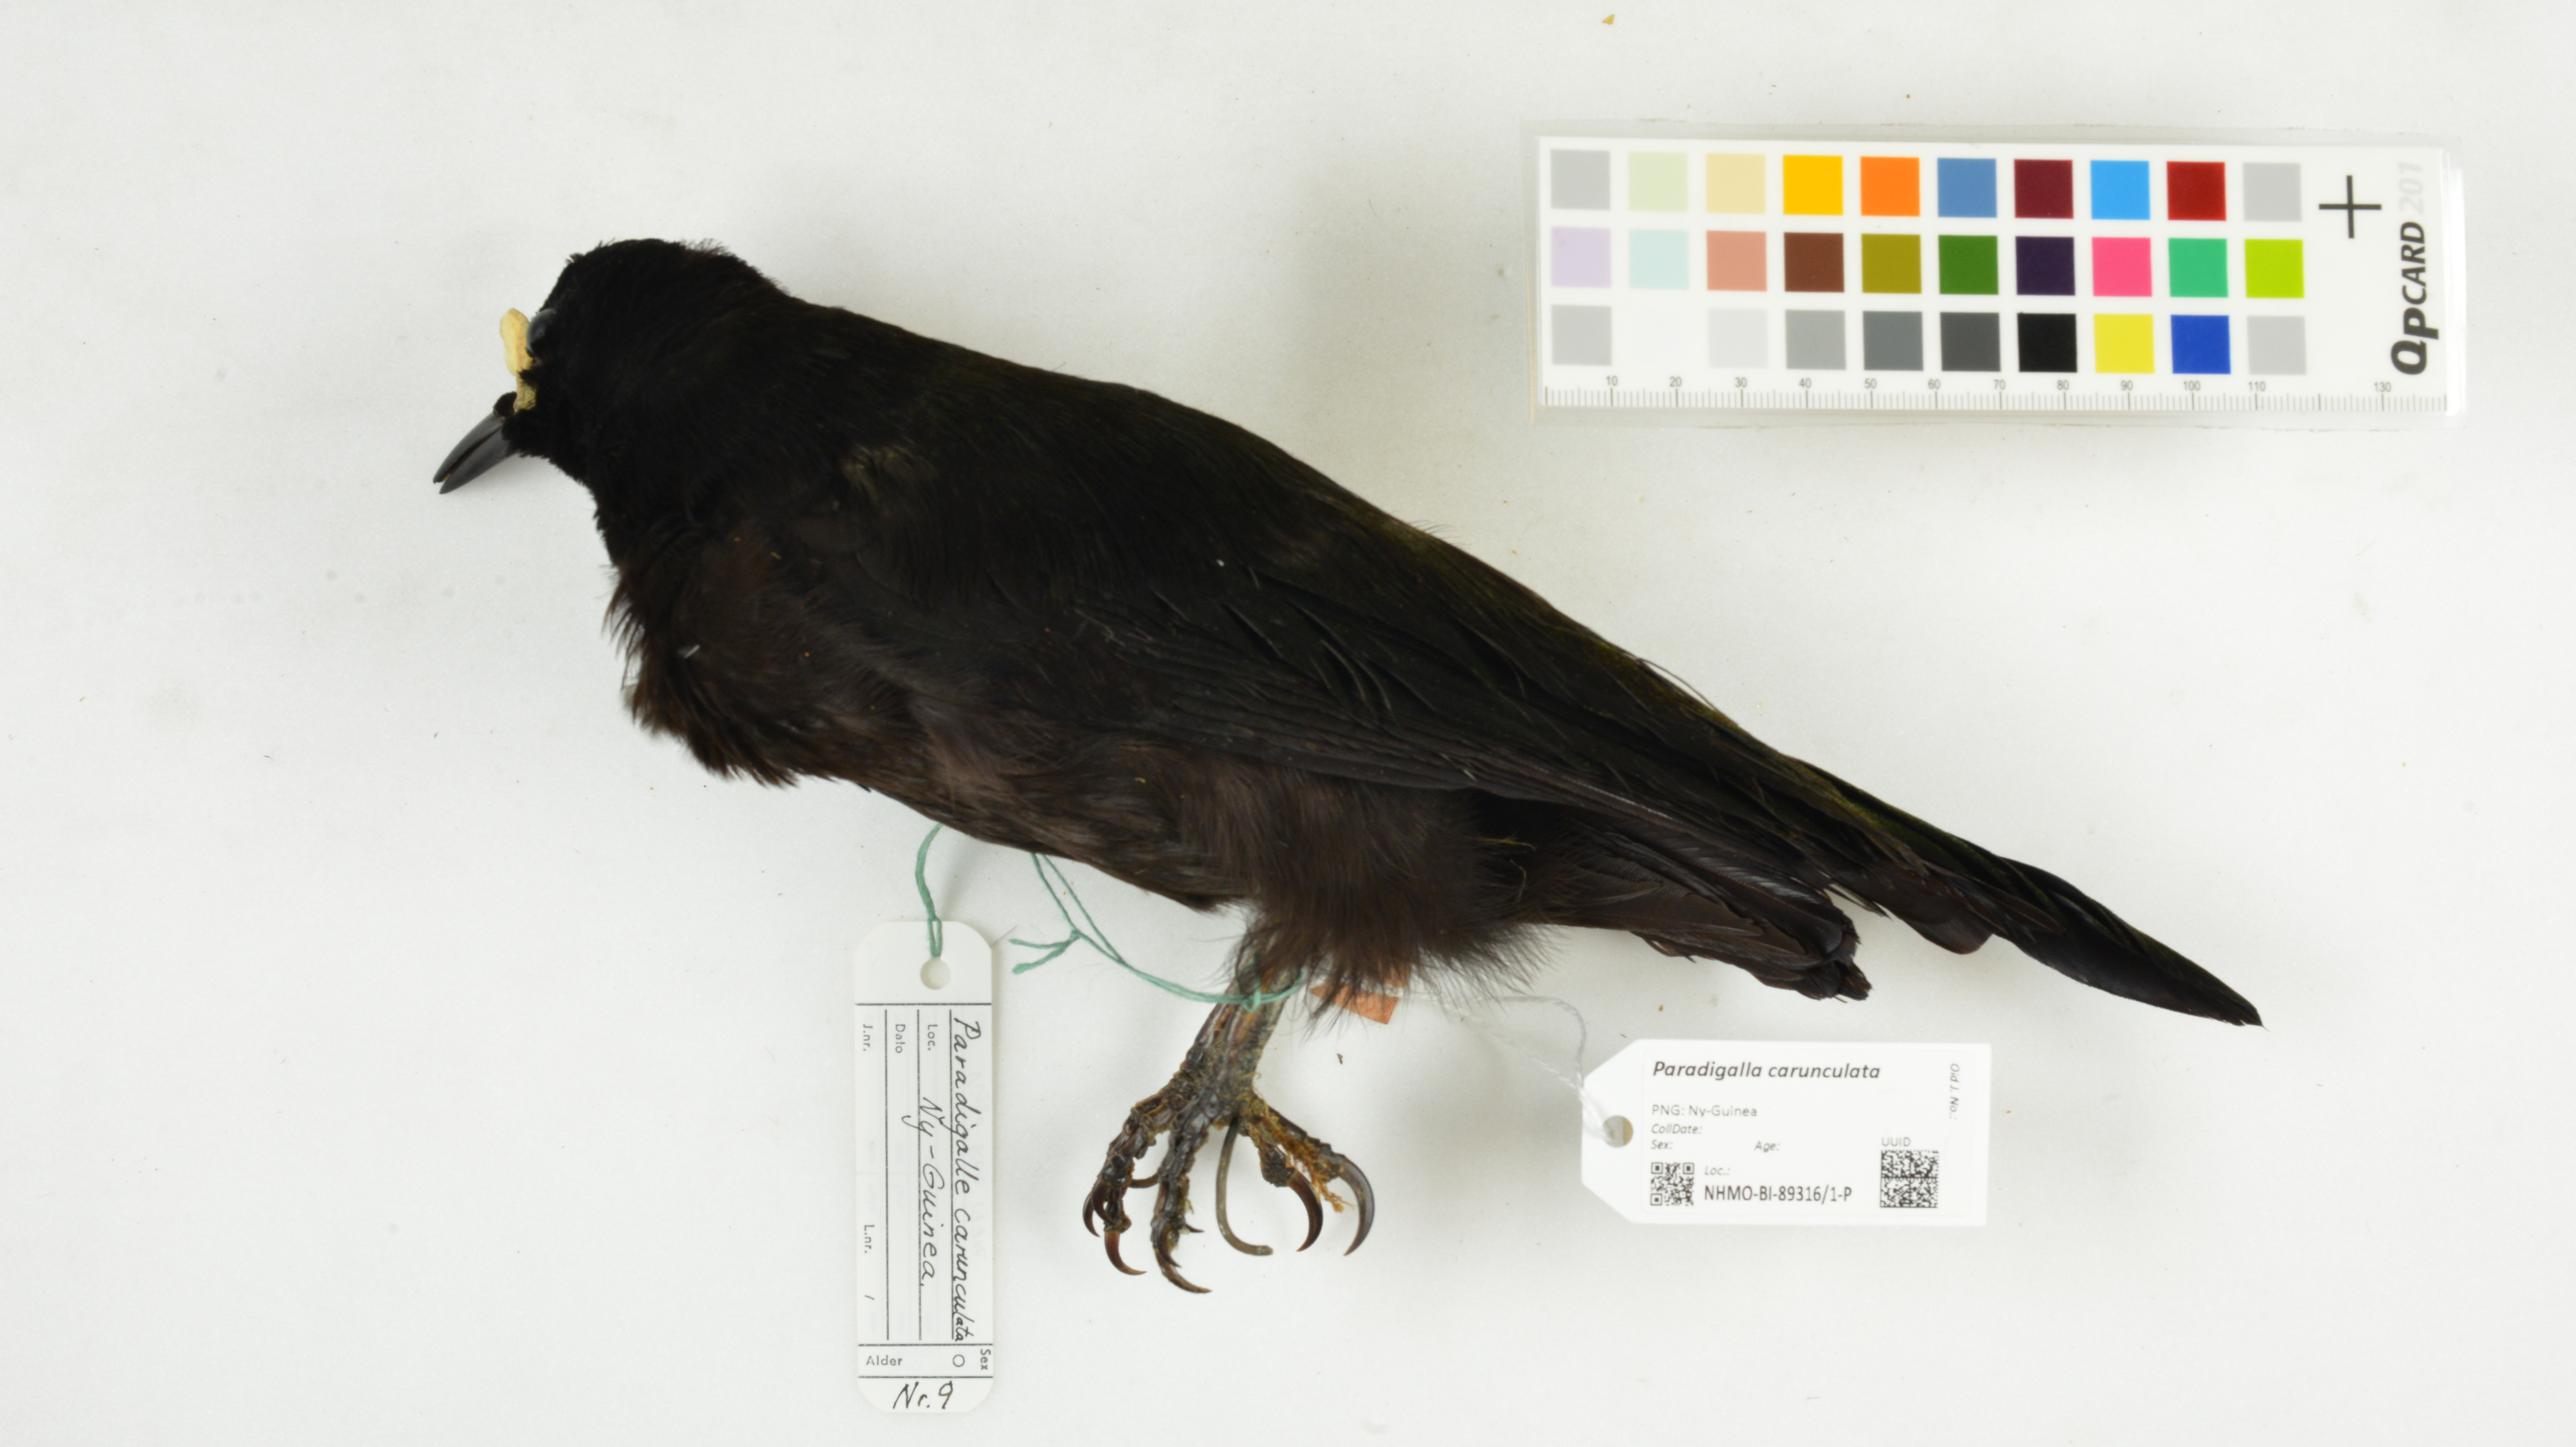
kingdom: Animalia
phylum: Chordata
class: Aves
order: Passeriformes
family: Paradisaeidae
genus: Paradigalla
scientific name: Paradigalla carunculata
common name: Long-tailed paradigalla
